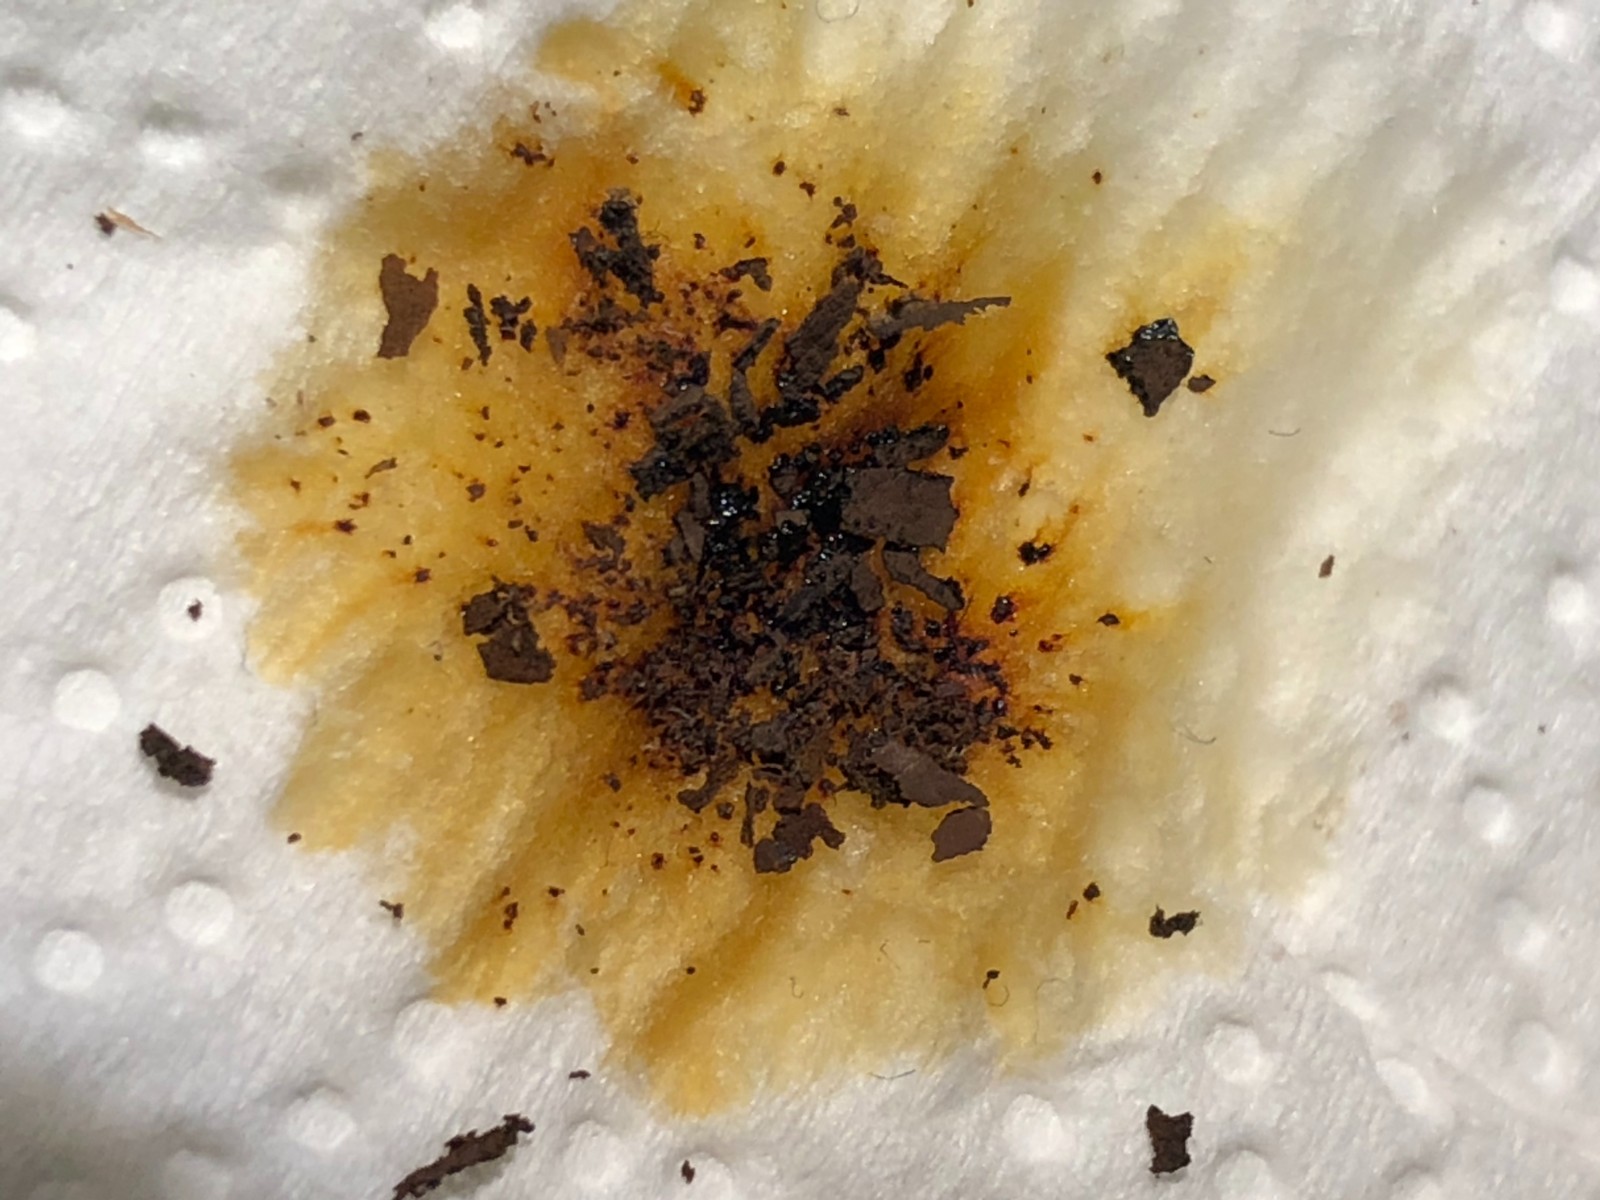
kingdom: Fungi
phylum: Ascomycota
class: Sordariomycetes
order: Xylariales
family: Hypoxylaceae
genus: Hypoxylon
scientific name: Hypoxylon petriniae
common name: nedsænket kulbær
